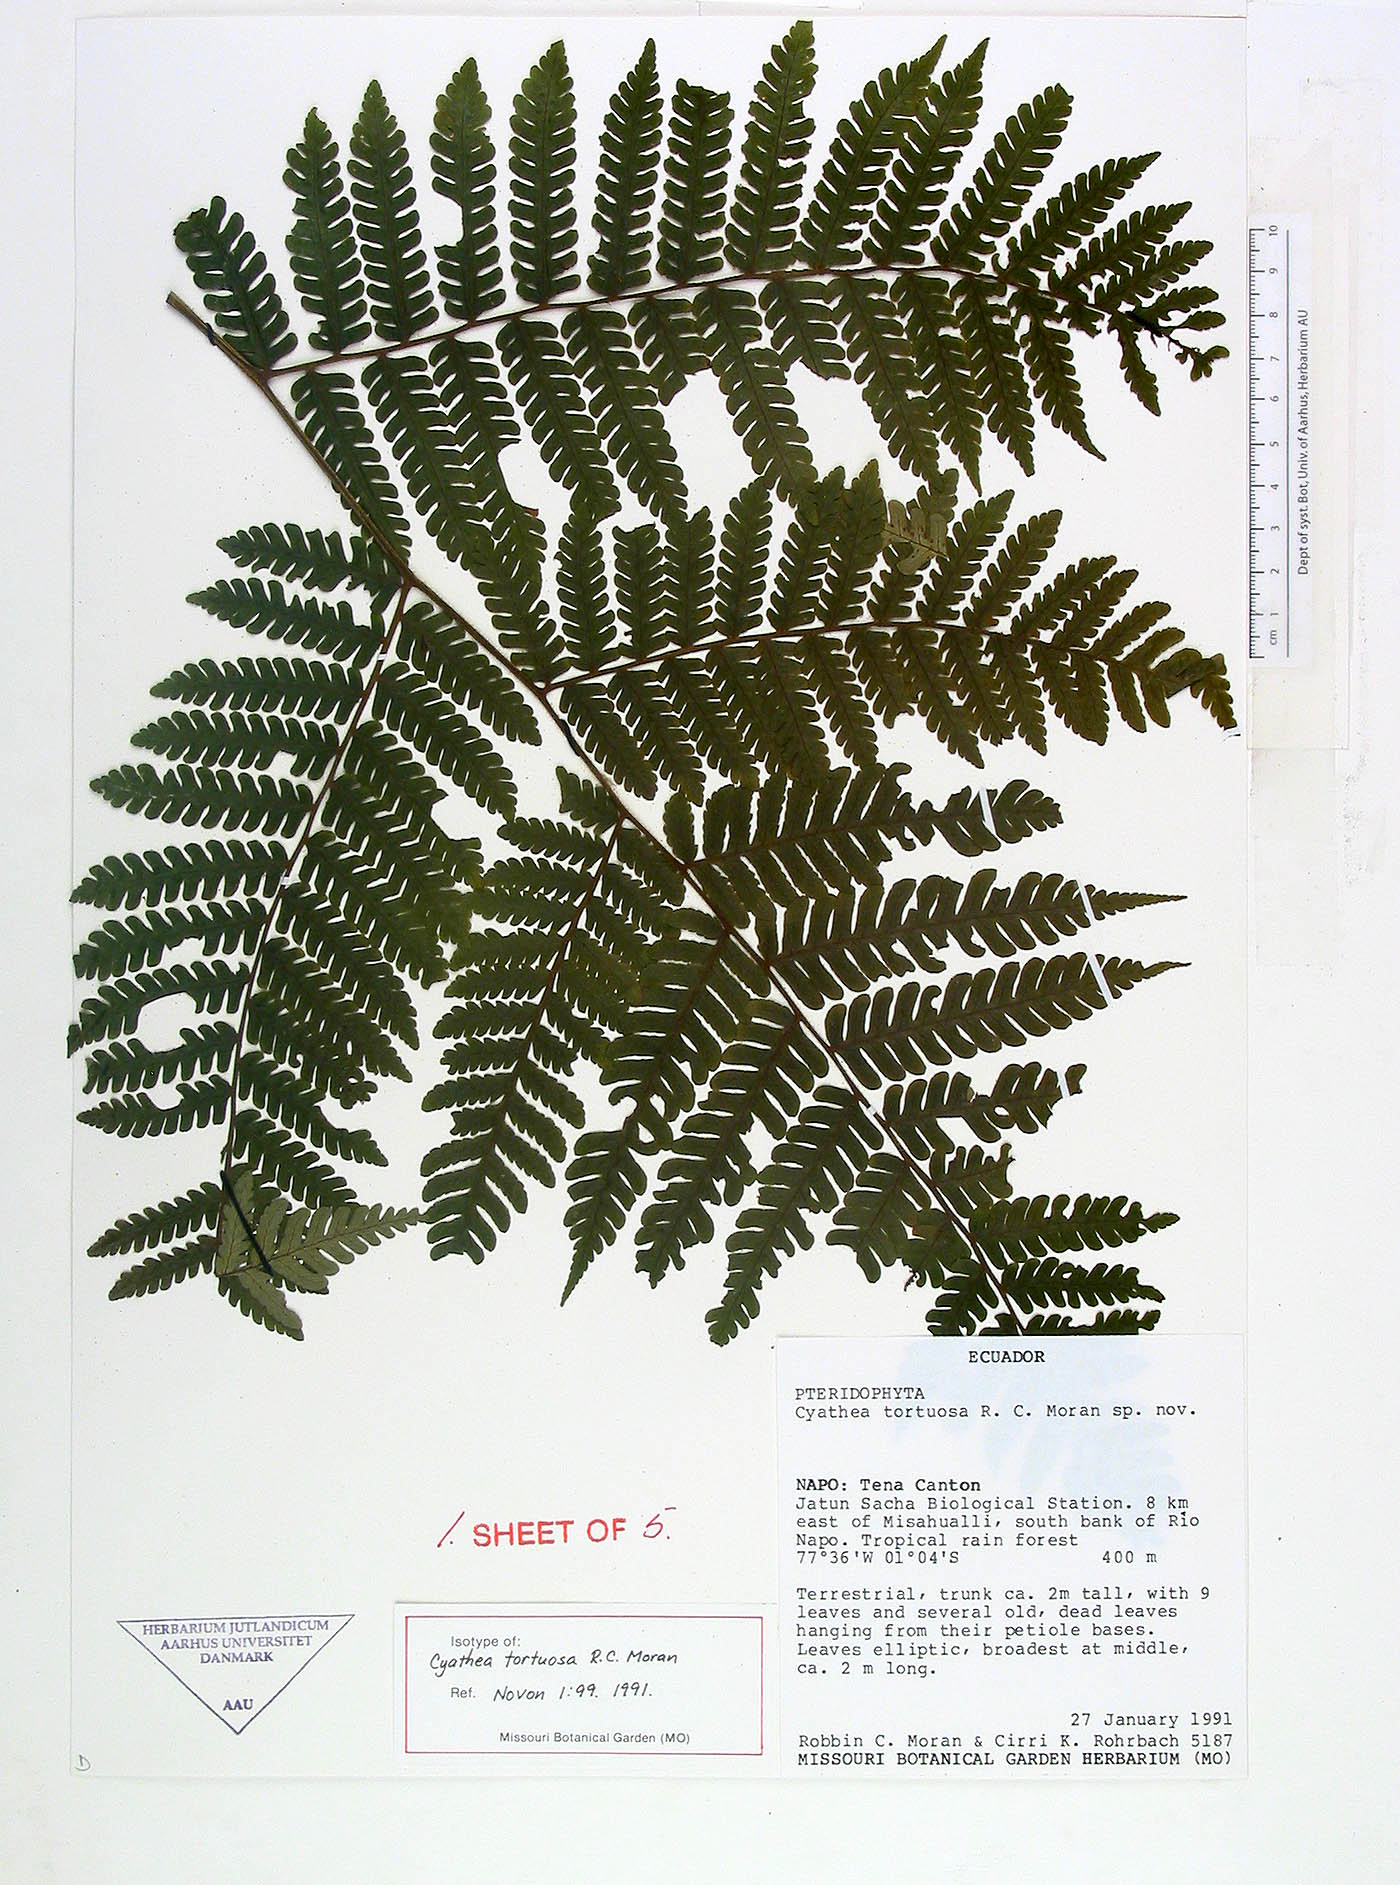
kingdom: Plantae
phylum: Tracheophyta
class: Polypodiopsida
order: Cyatheales
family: Cyatheaceae
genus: Cyathea
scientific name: Cyathea tortuosa
